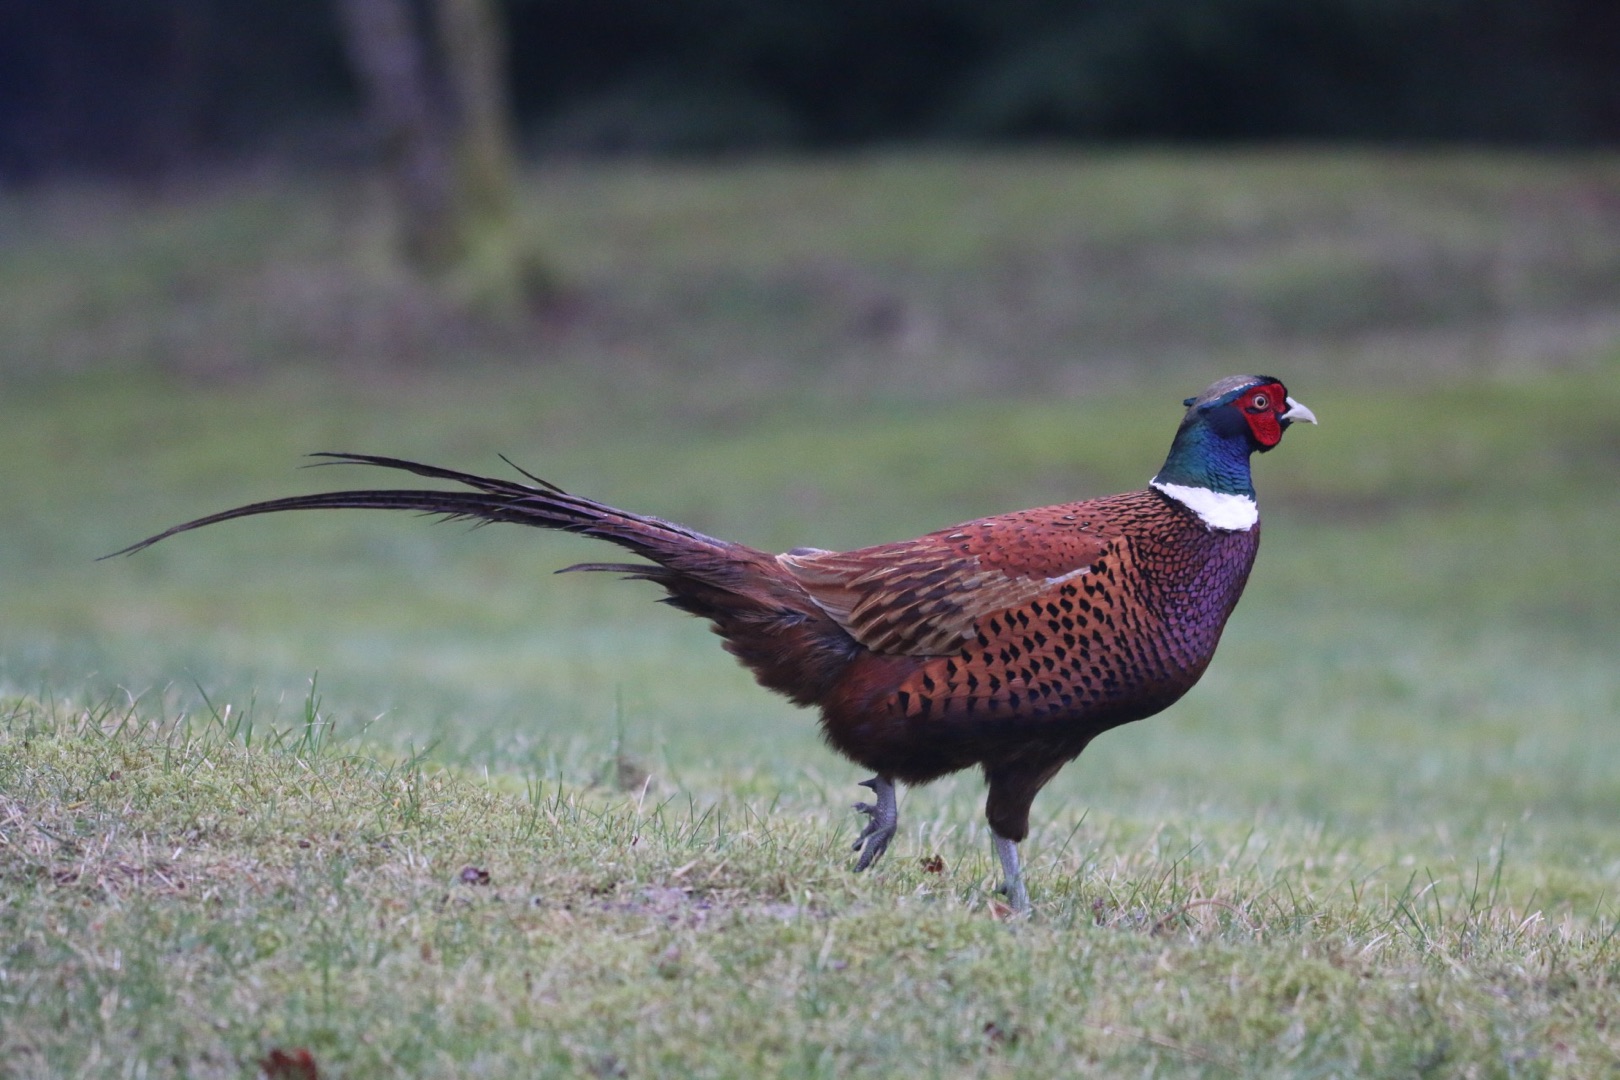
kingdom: Animalia
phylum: Chordata
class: Aves
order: Galliformes
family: Phasianidae
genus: Phasianus
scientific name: Phasianus colchicus
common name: Fasan
